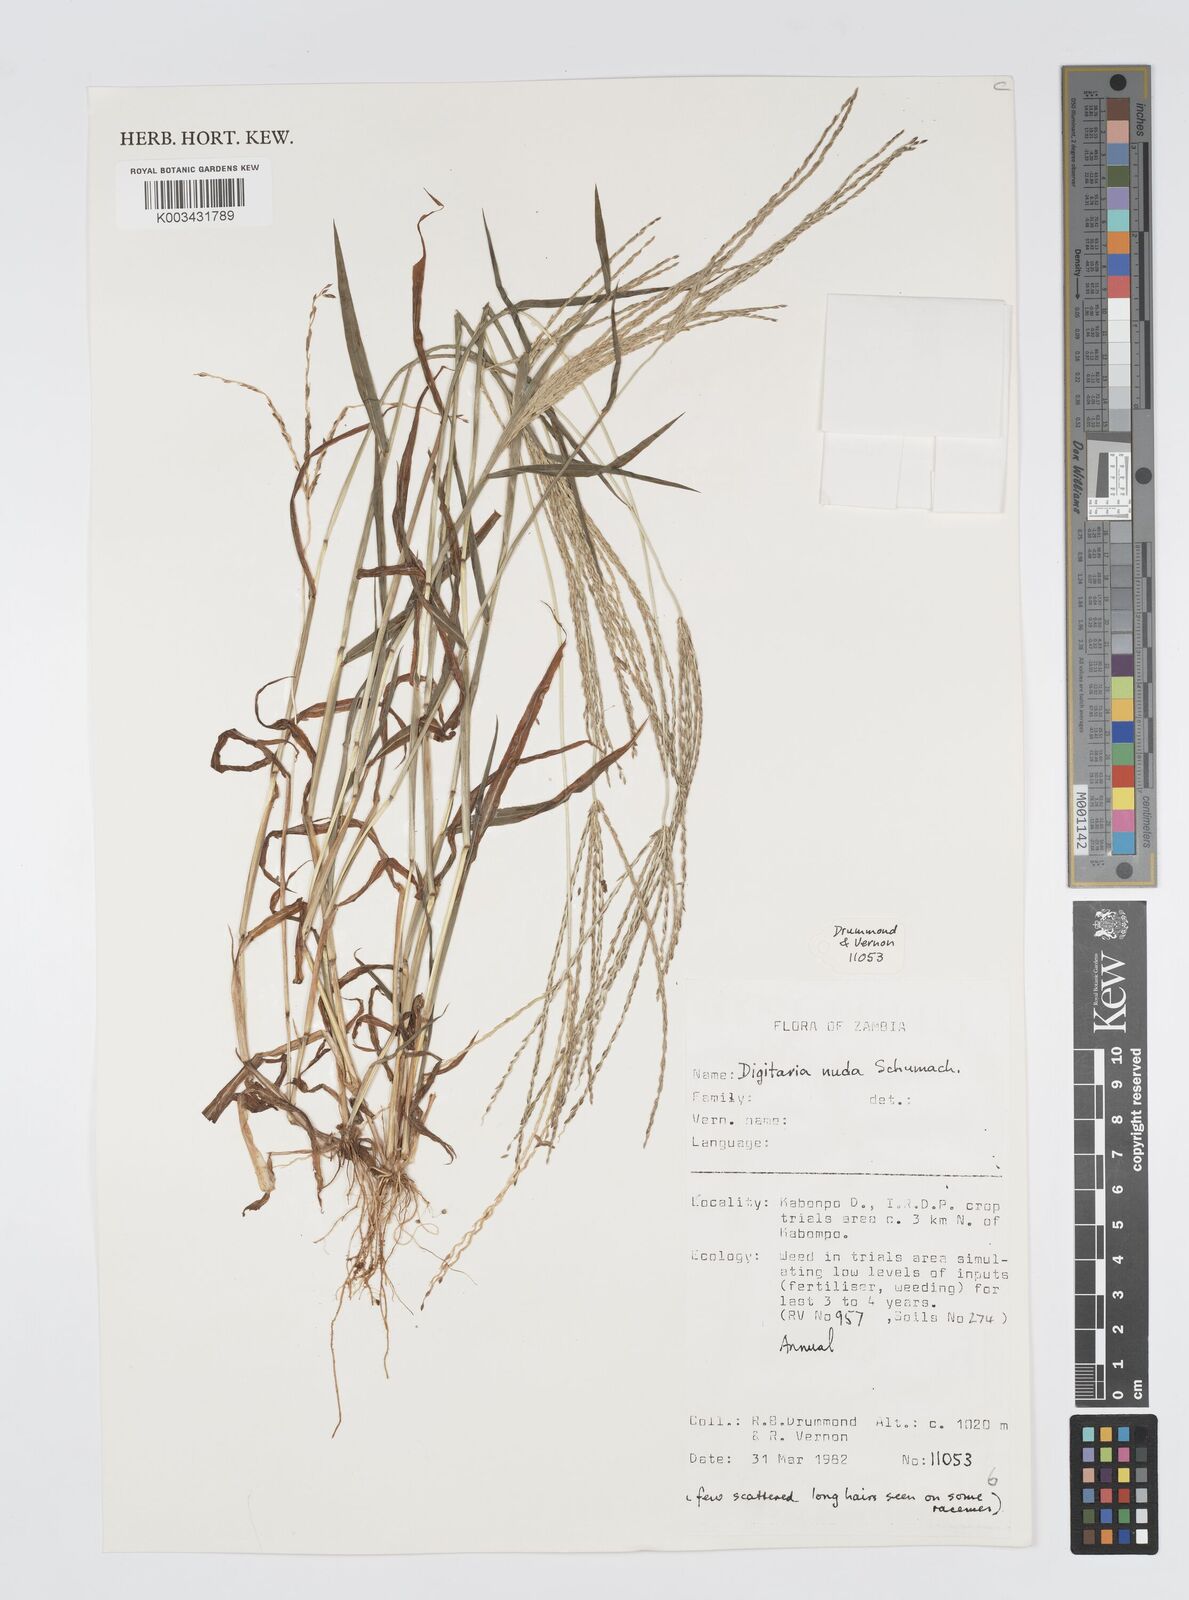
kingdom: Plantae
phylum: Tracheophyta
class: Liliopsida
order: Poales
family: Poaceae
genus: Digitaria
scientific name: Digitaria nuda
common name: Naked crabgrass
